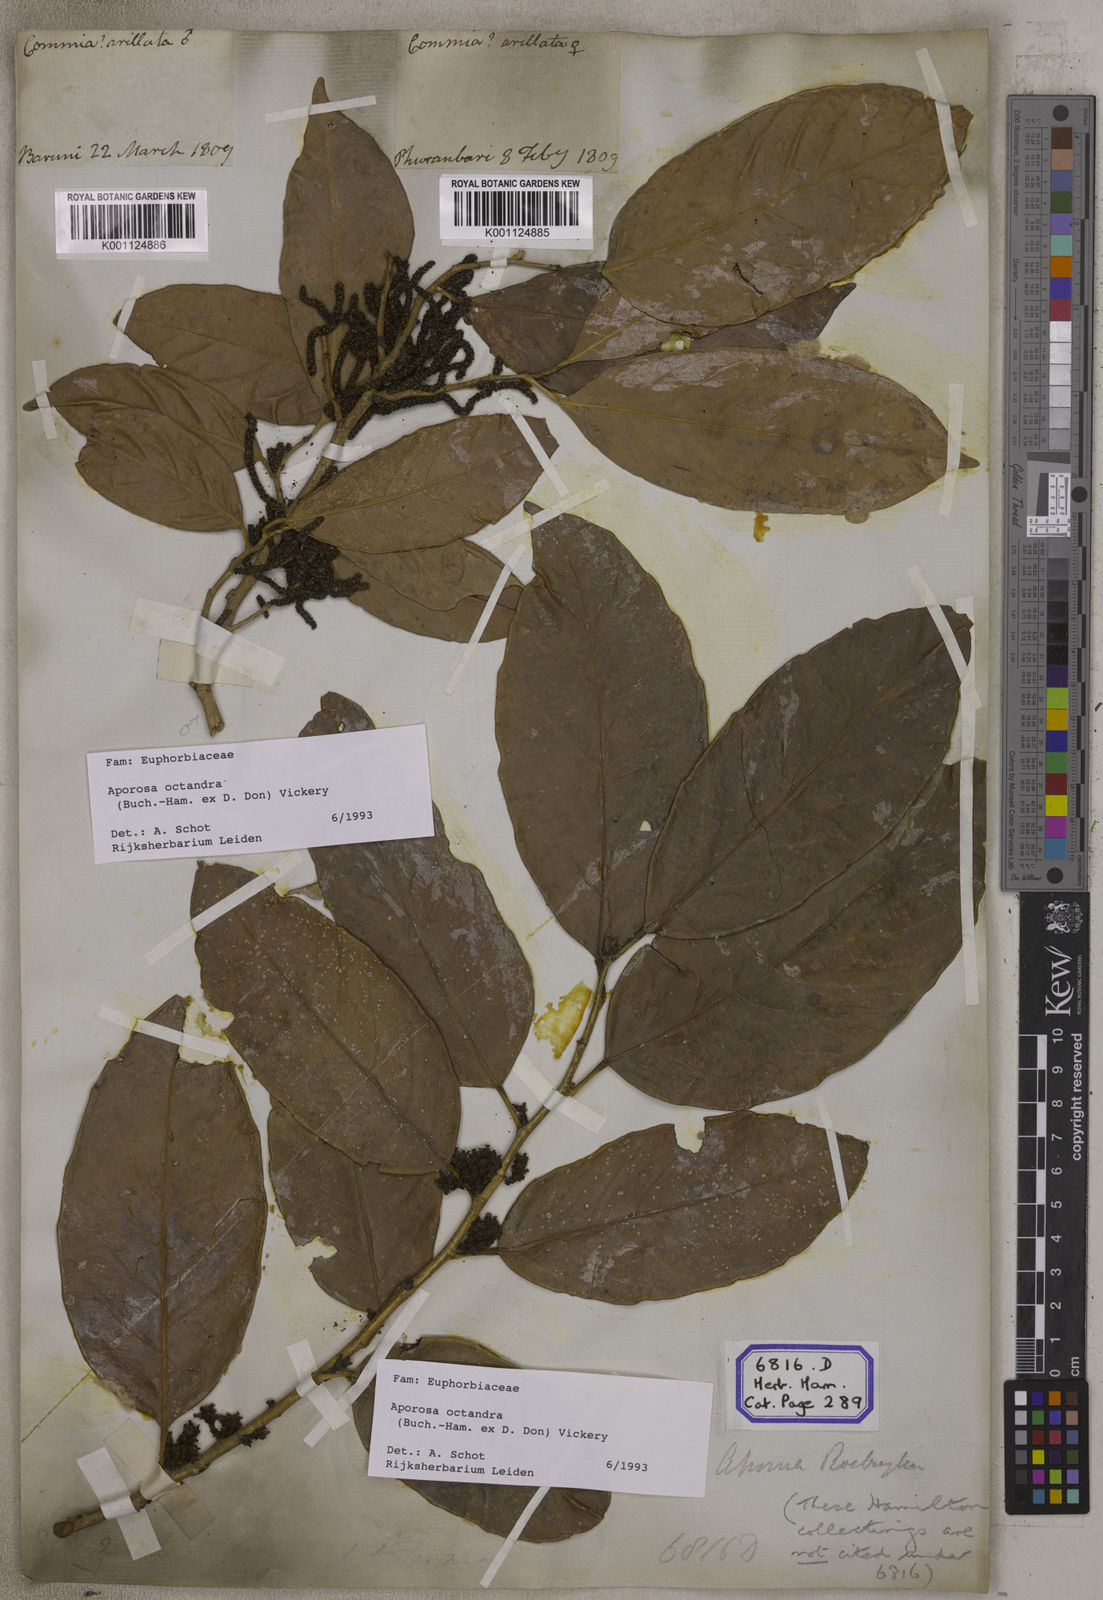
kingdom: Plantae
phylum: Tracheophyta
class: Magnoliopsida
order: Malpighiales
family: Phyllanthaceae
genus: Aporosa
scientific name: Aporosa
